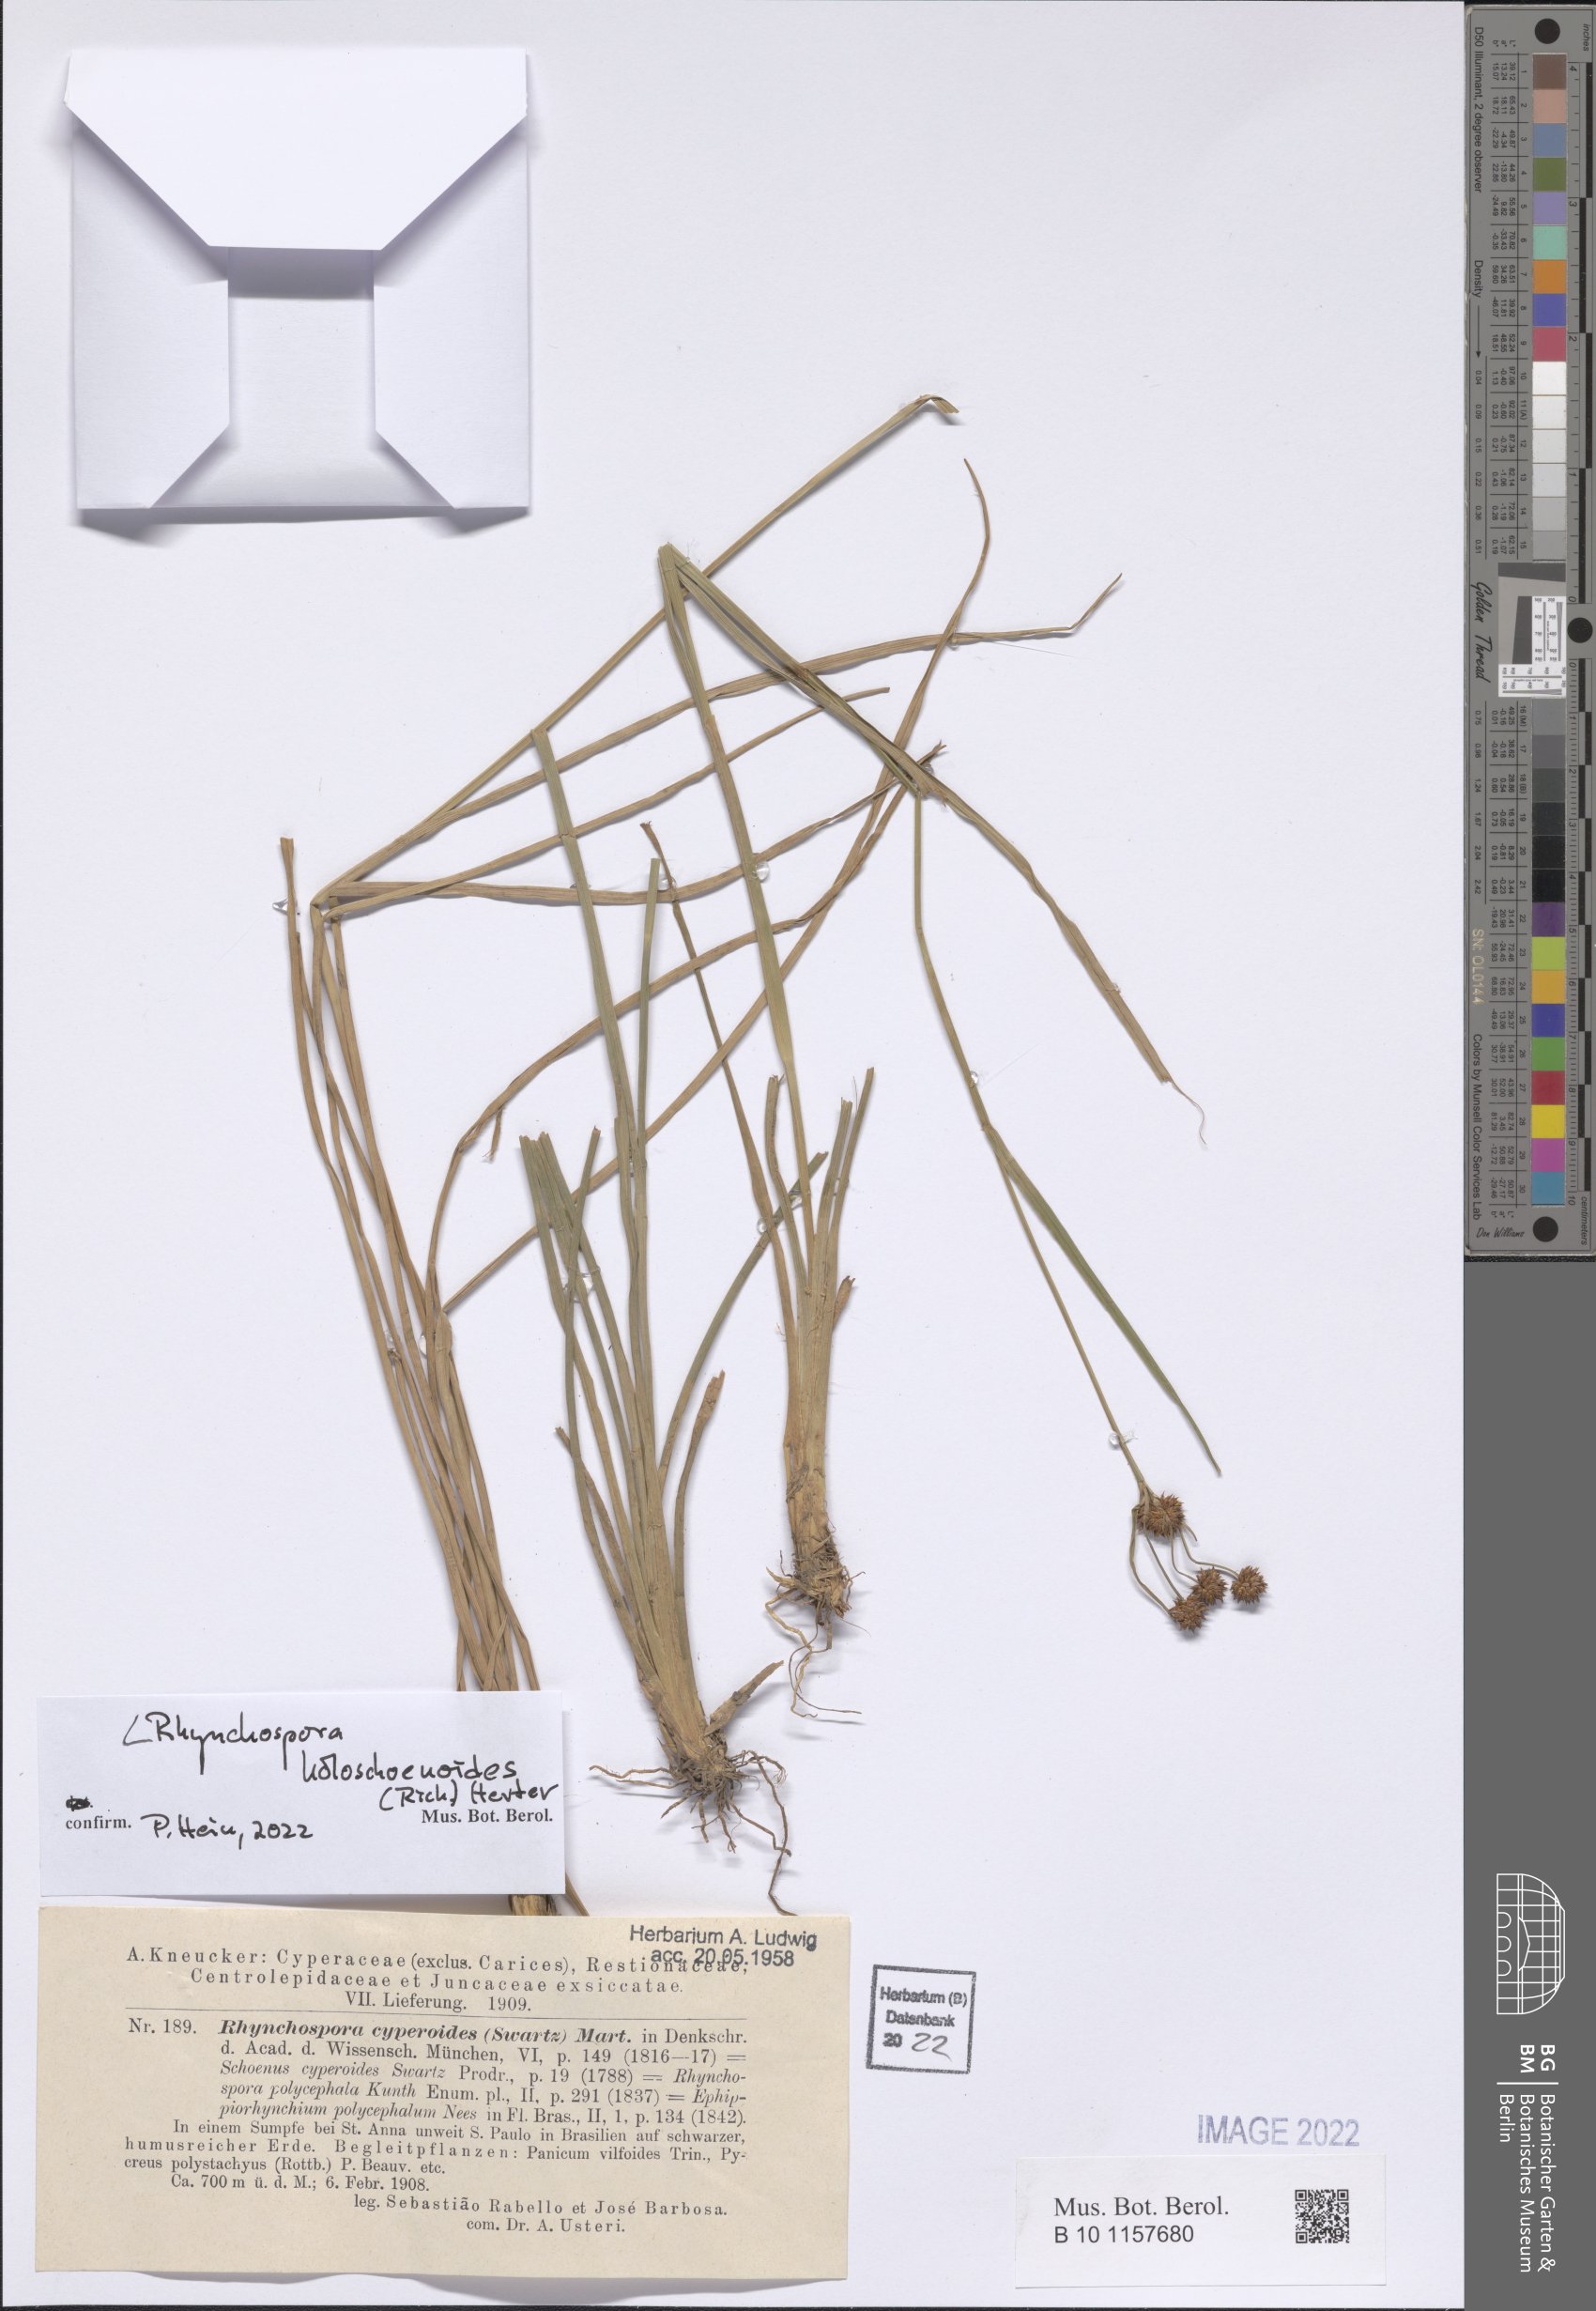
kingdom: Plantae
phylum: Tracheophyta
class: Liliopsida
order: Poales
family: Cyperaceae
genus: Rhynchospora
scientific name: Rhynchospora holoschoenoides
